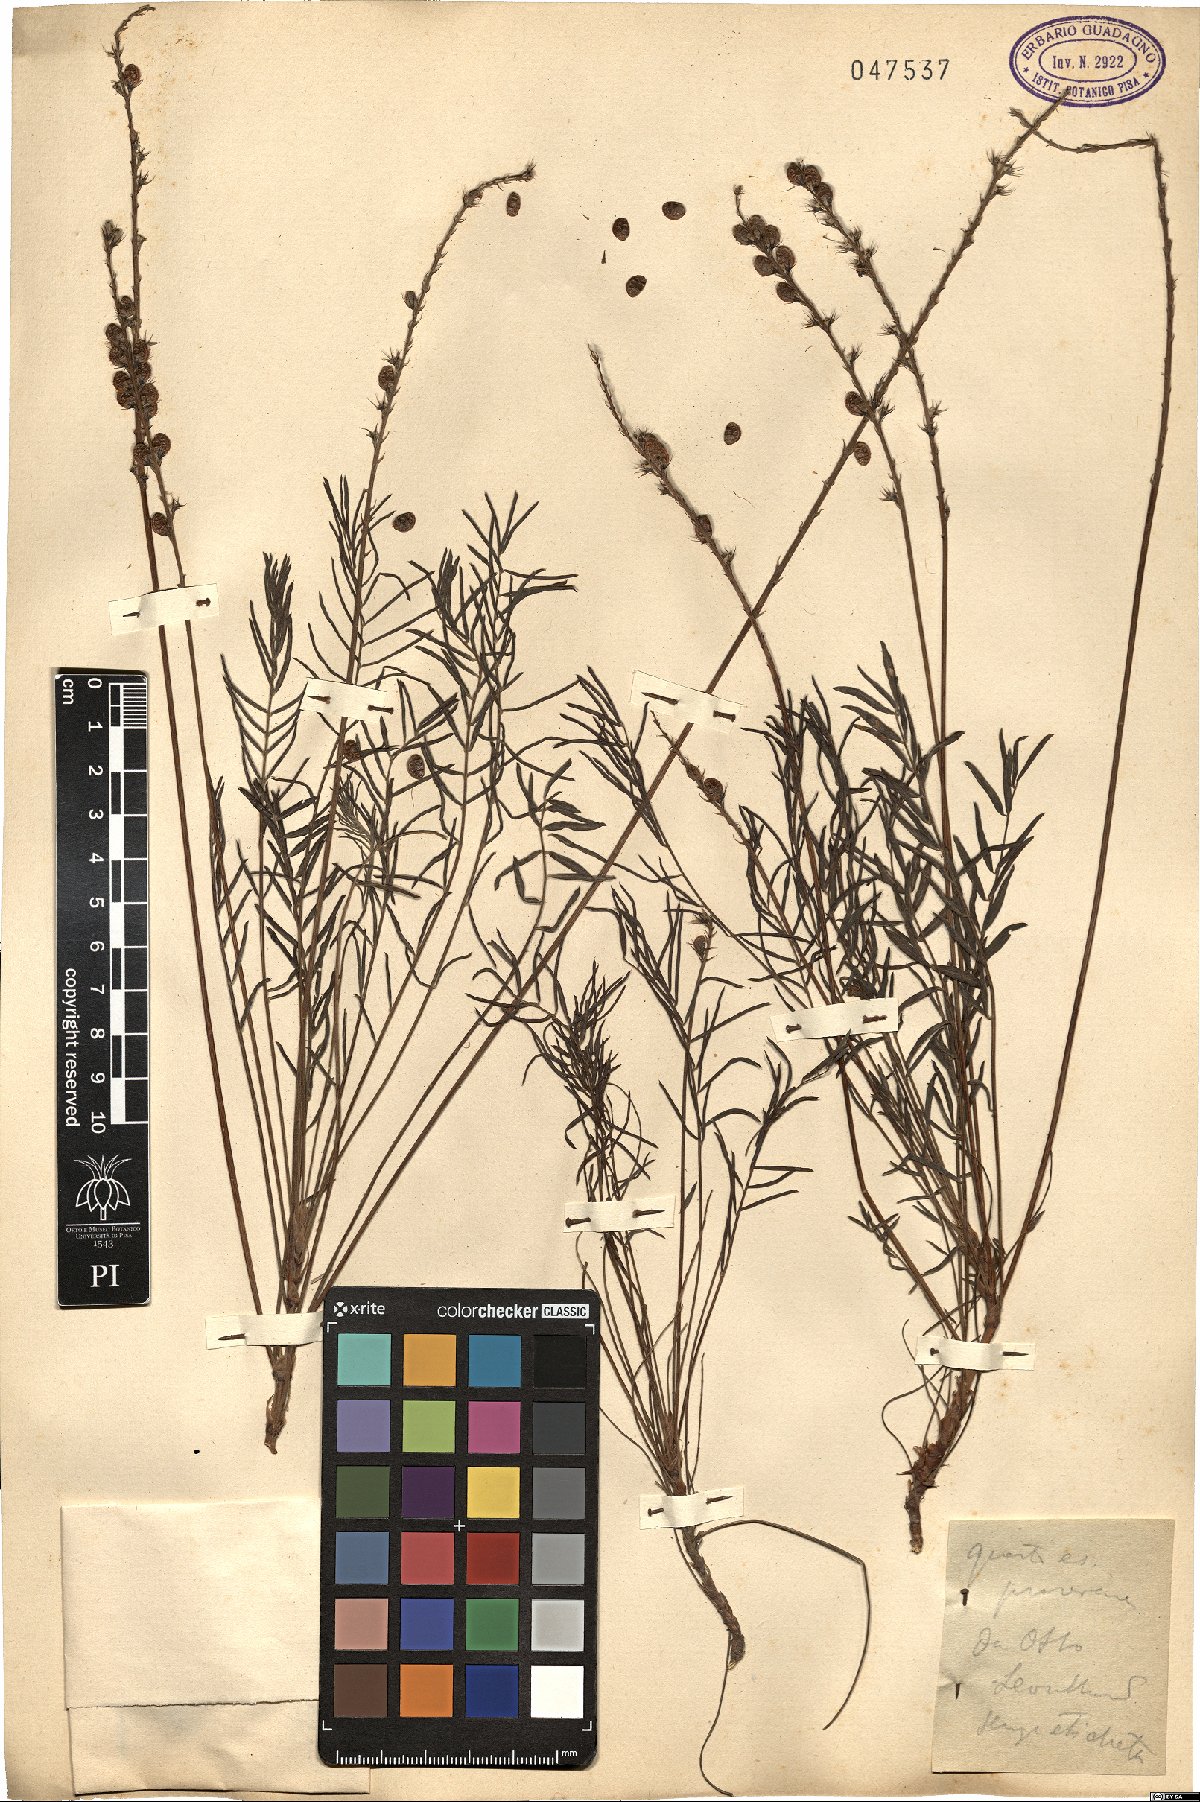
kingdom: Plantae
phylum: Tracheophyta
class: Magnoliopsida
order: Fabales
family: Fabaceae
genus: Onobrychis
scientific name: Onobrychis
